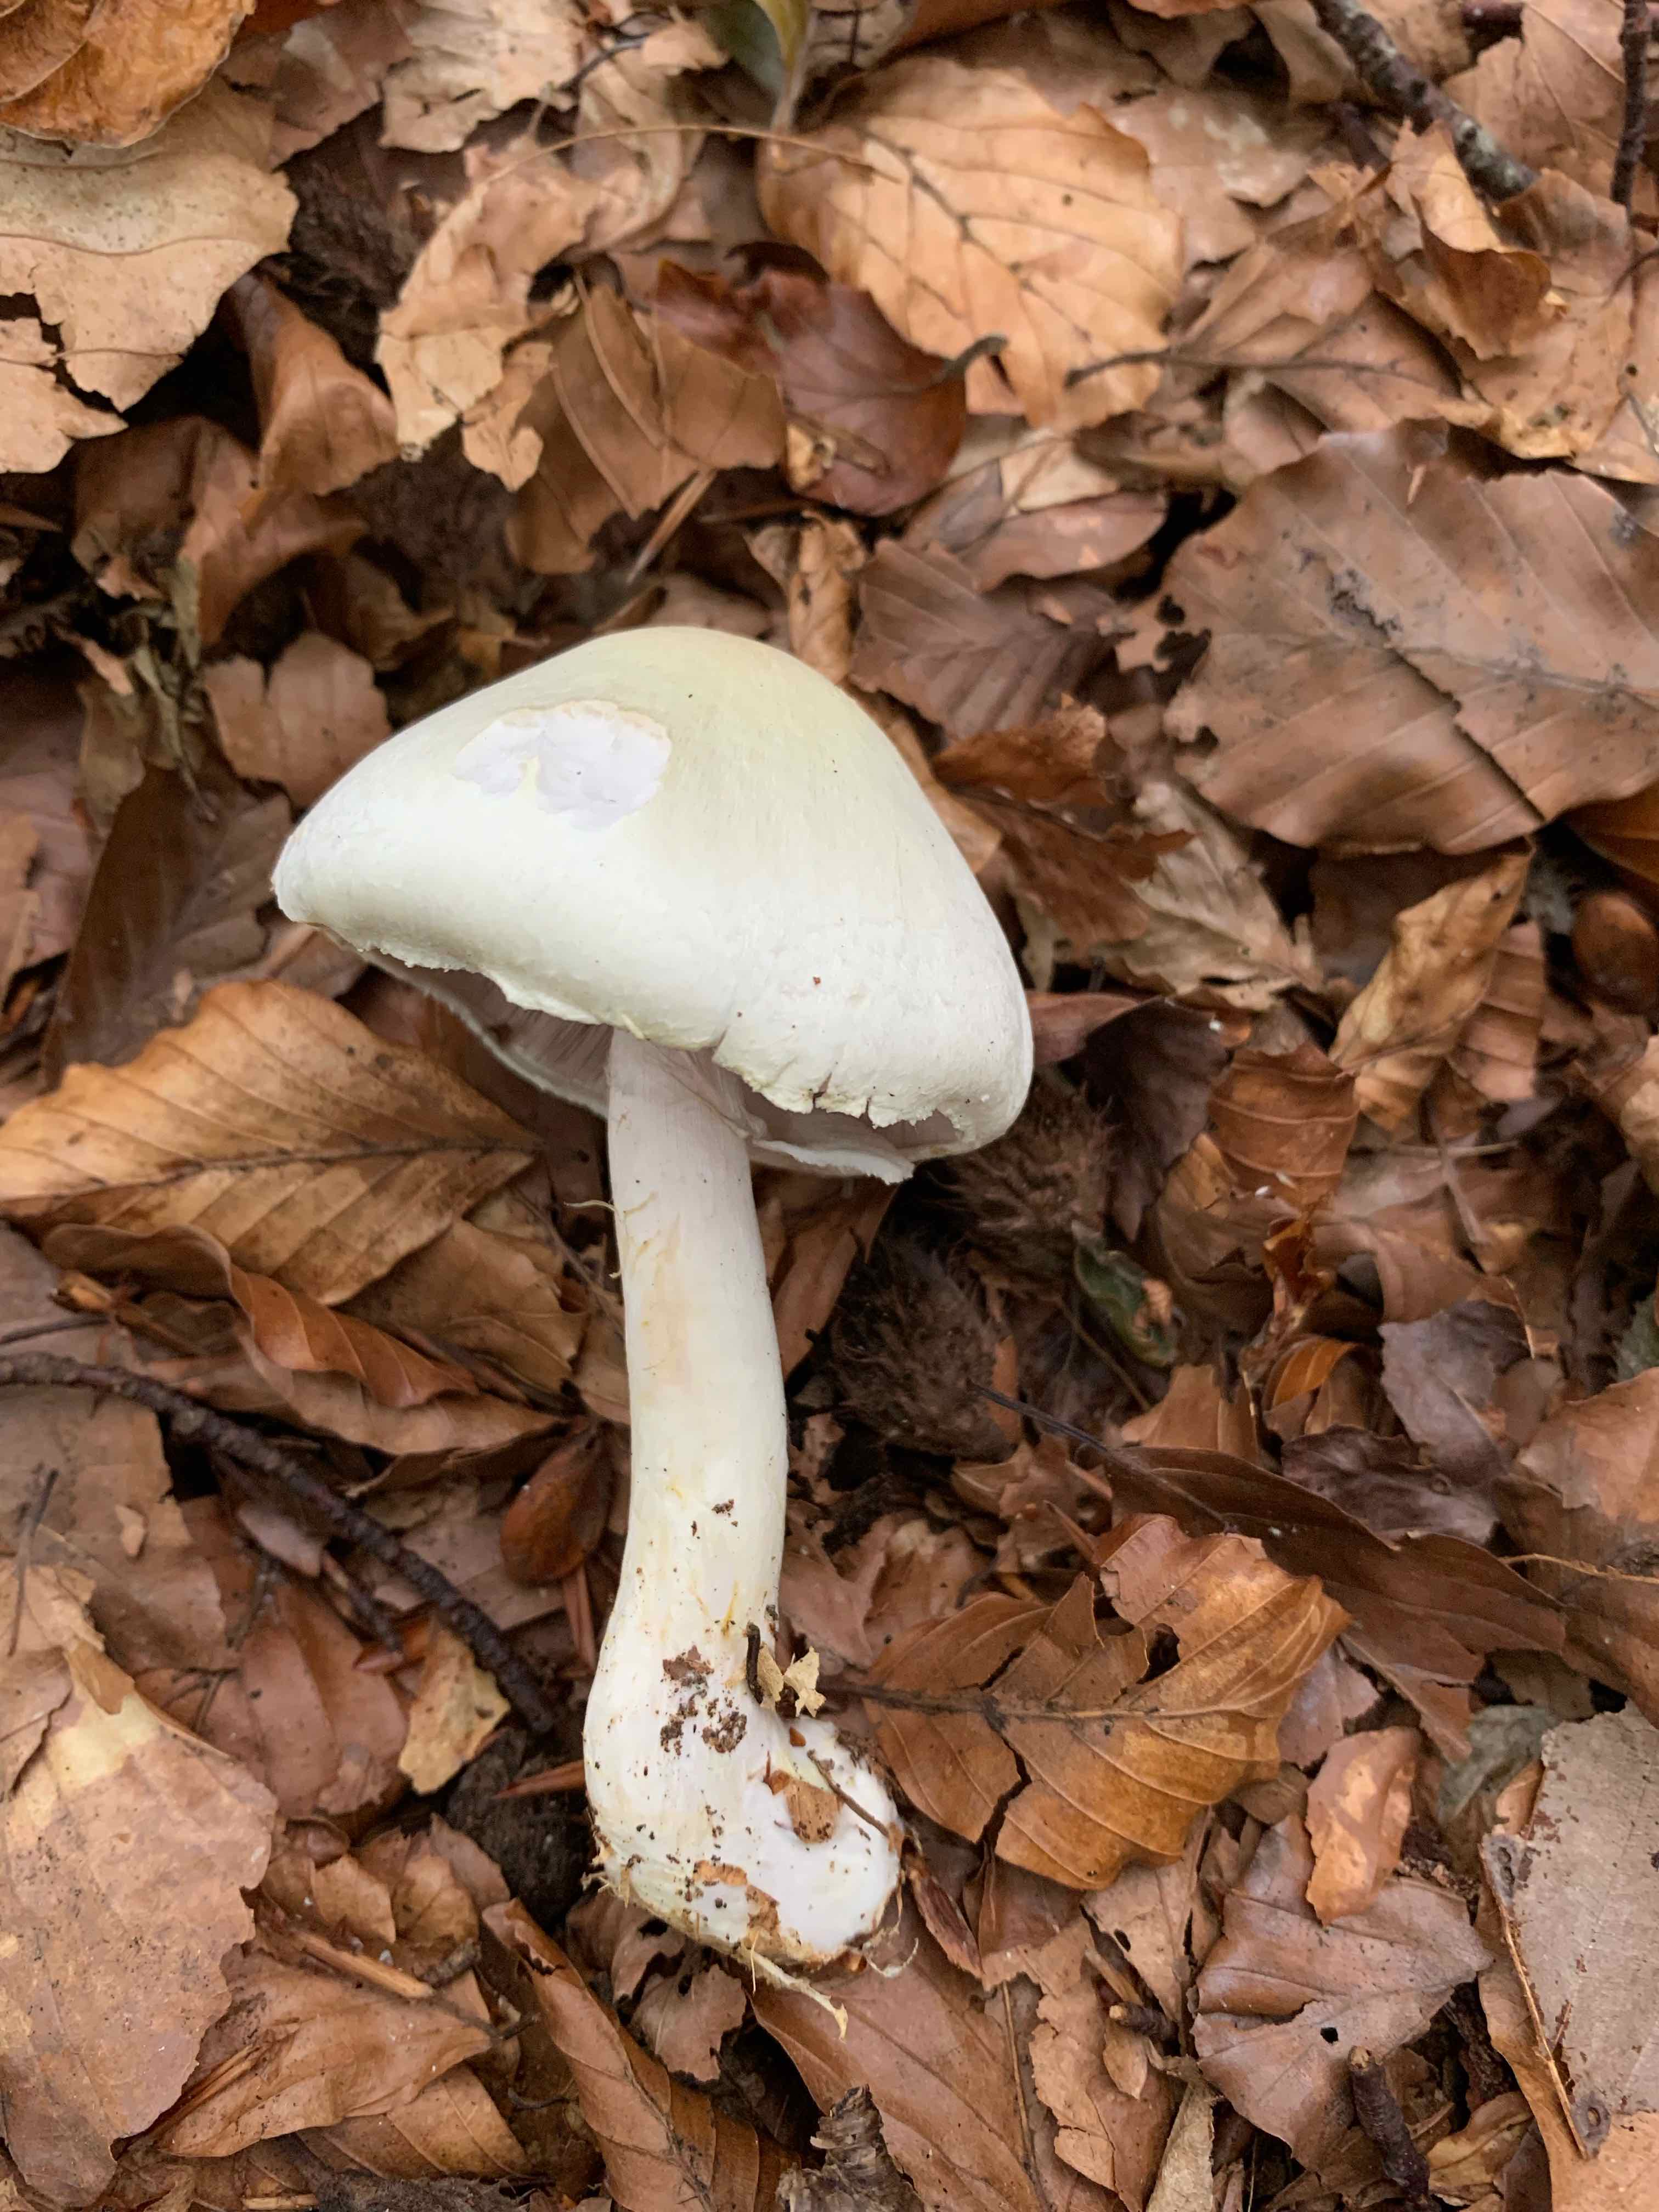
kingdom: Fungi
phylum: Basidiomycota
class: Agaricomycetes
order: Agaricales
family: Agaricaceae
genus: Agaricus
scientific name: Agaricus sylvicola
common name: skiveknoldet champignon
